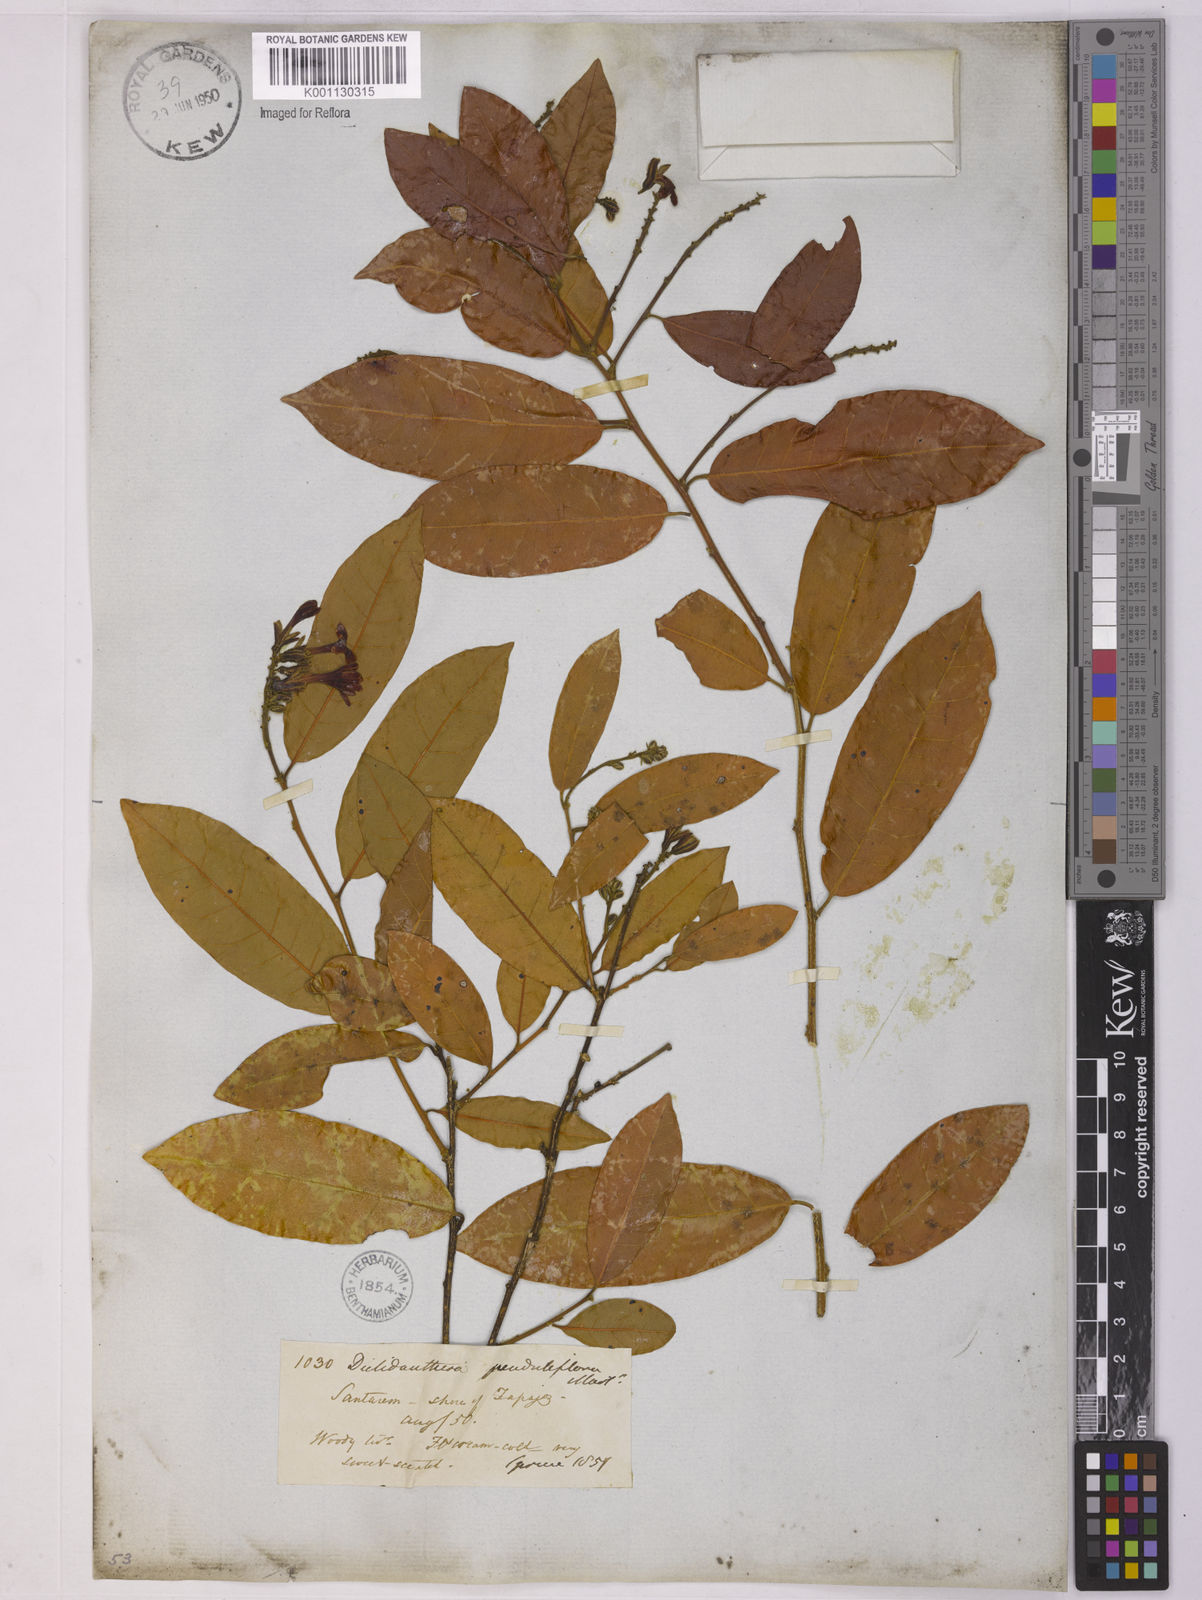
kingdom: Plantae
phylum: Tracheophyta
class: Magnoliopsida
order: Fabales
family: Polygalaceae
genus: Diclidanthera
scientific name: Diclidanthera penduliflora
